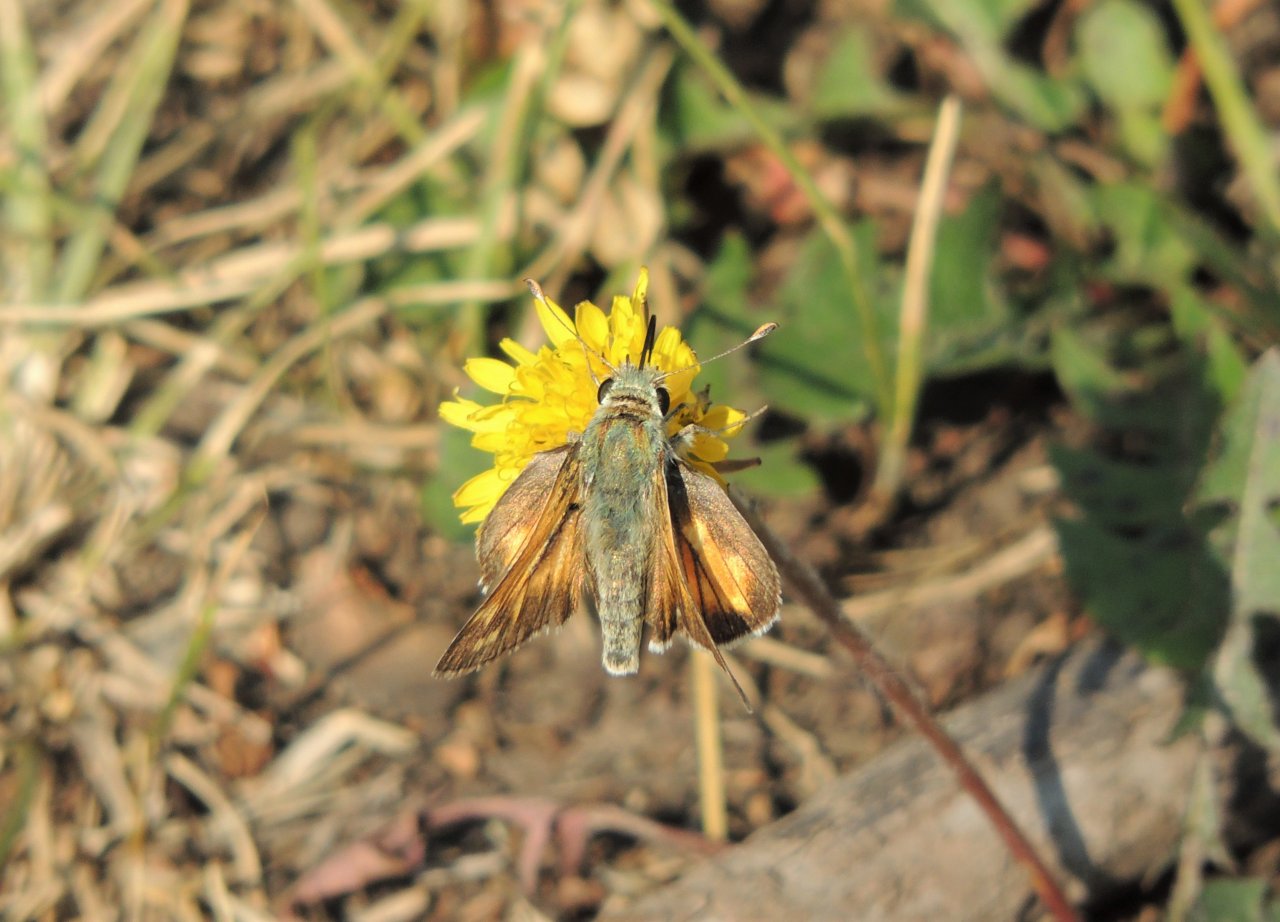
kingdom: Animalia
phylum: Arthropoda
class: Insecta
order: Lepidoptera
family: Hesperiidae
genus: Hesperia
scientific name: Hesperia comma
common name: Western Branded Skipper
